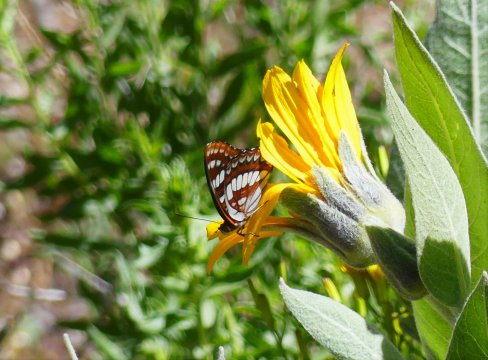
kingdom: Animalia
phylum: Arthropoda
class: Insecta
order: Lepidoptera
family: Nymphalidae
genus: Limenitis
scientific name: Limenitis lorquini
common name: Lorquin's Admiral
